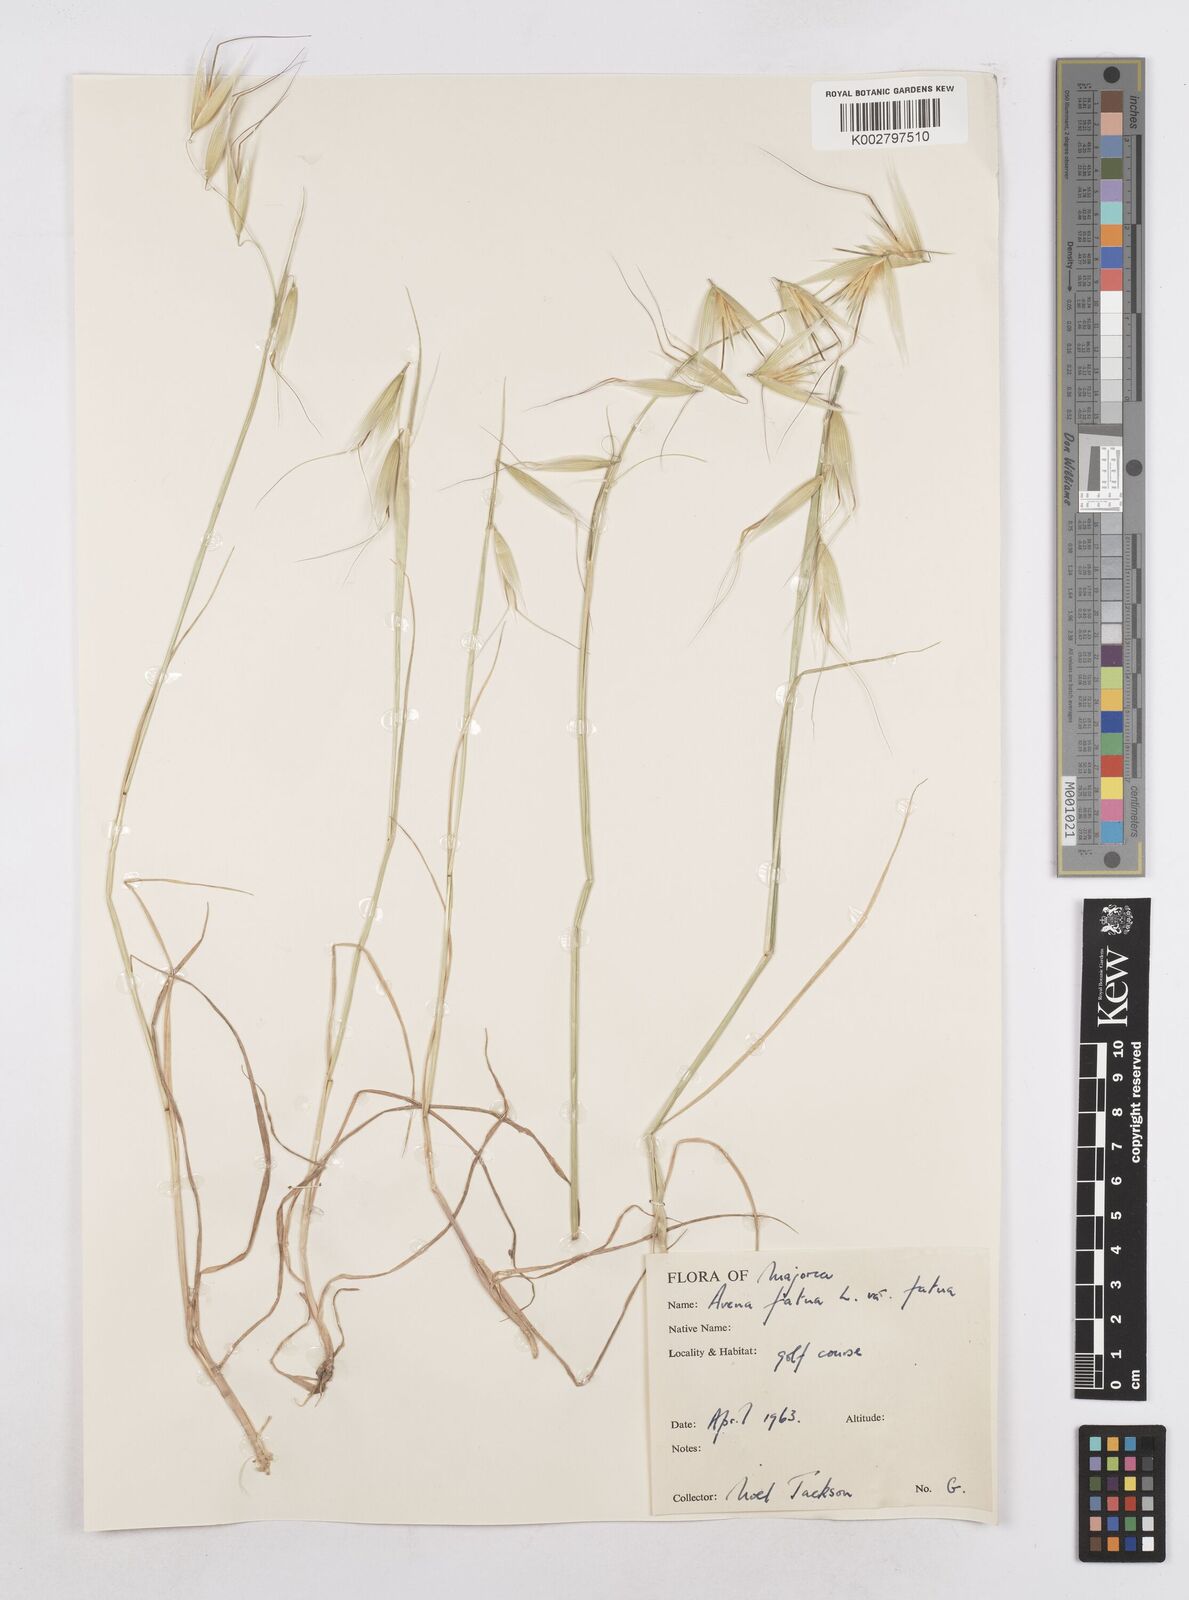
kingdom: Plantae
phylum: Tracheophyta
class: Liliopsida
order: Poales
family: Poaceae
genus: Avena
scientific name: Avena fatua
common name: Wild oat
